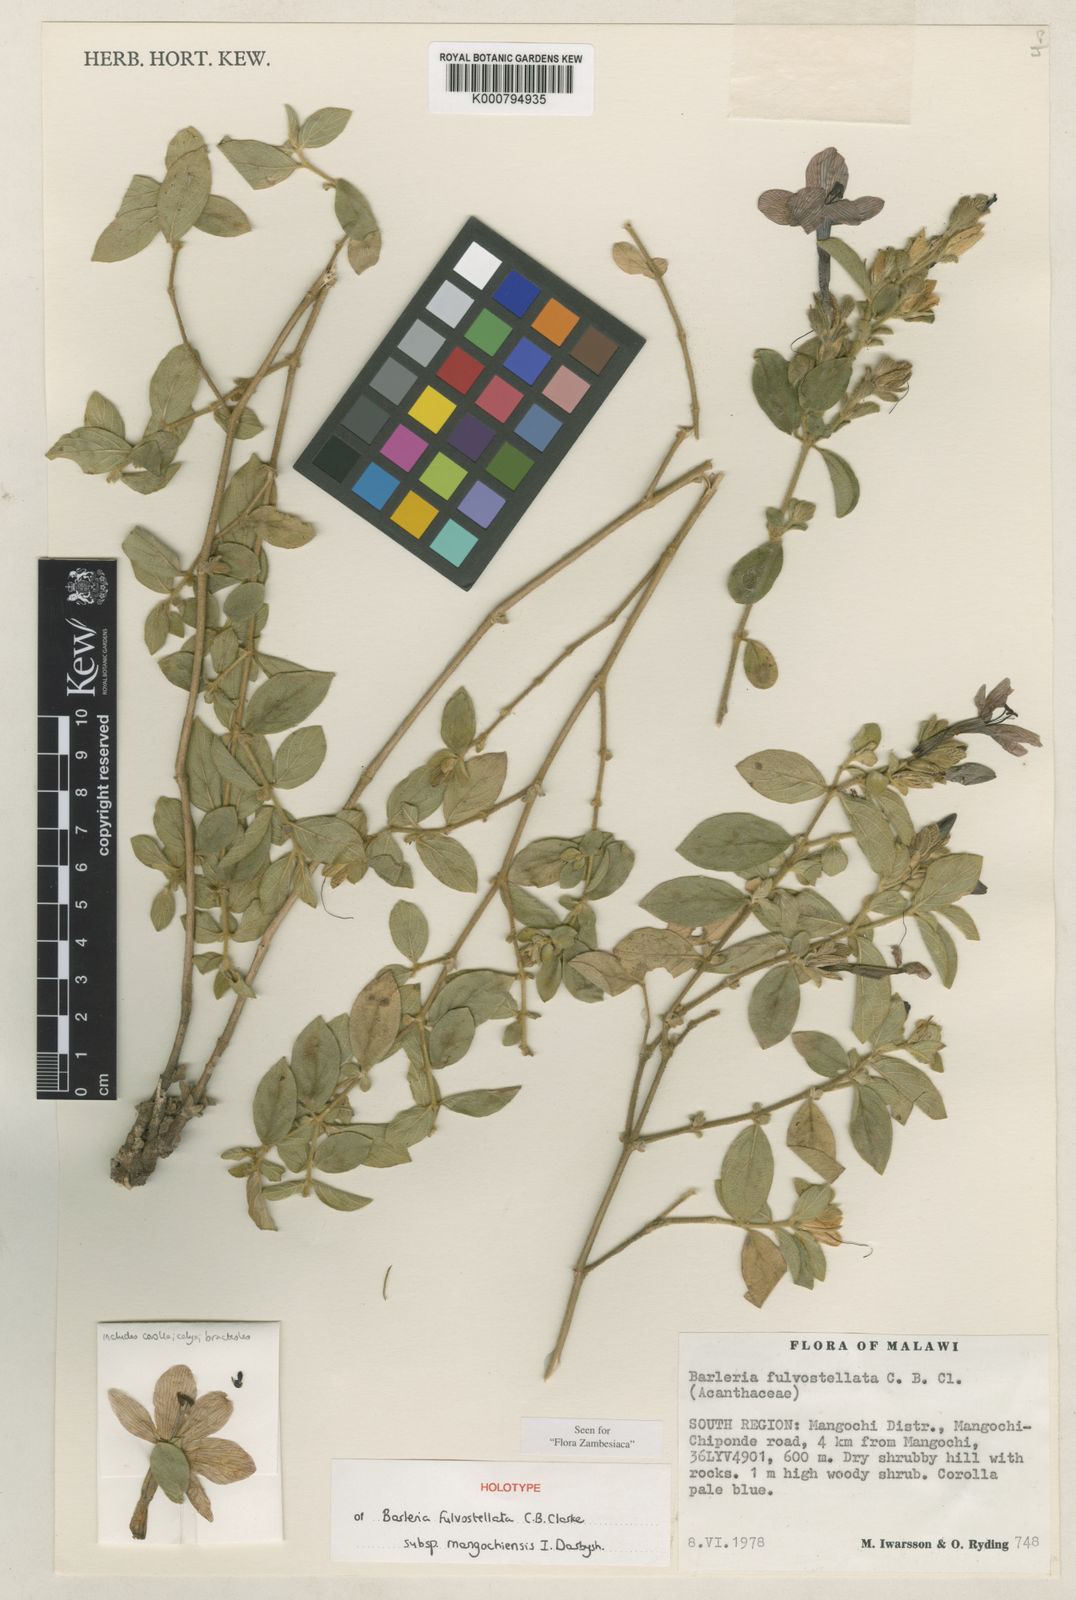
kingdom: Plantae
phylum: Tracheophyta
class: Magnoliopsida
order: Lamiales
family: Acanthaceae
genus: Barleria
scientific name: Barleria fulvostellata
